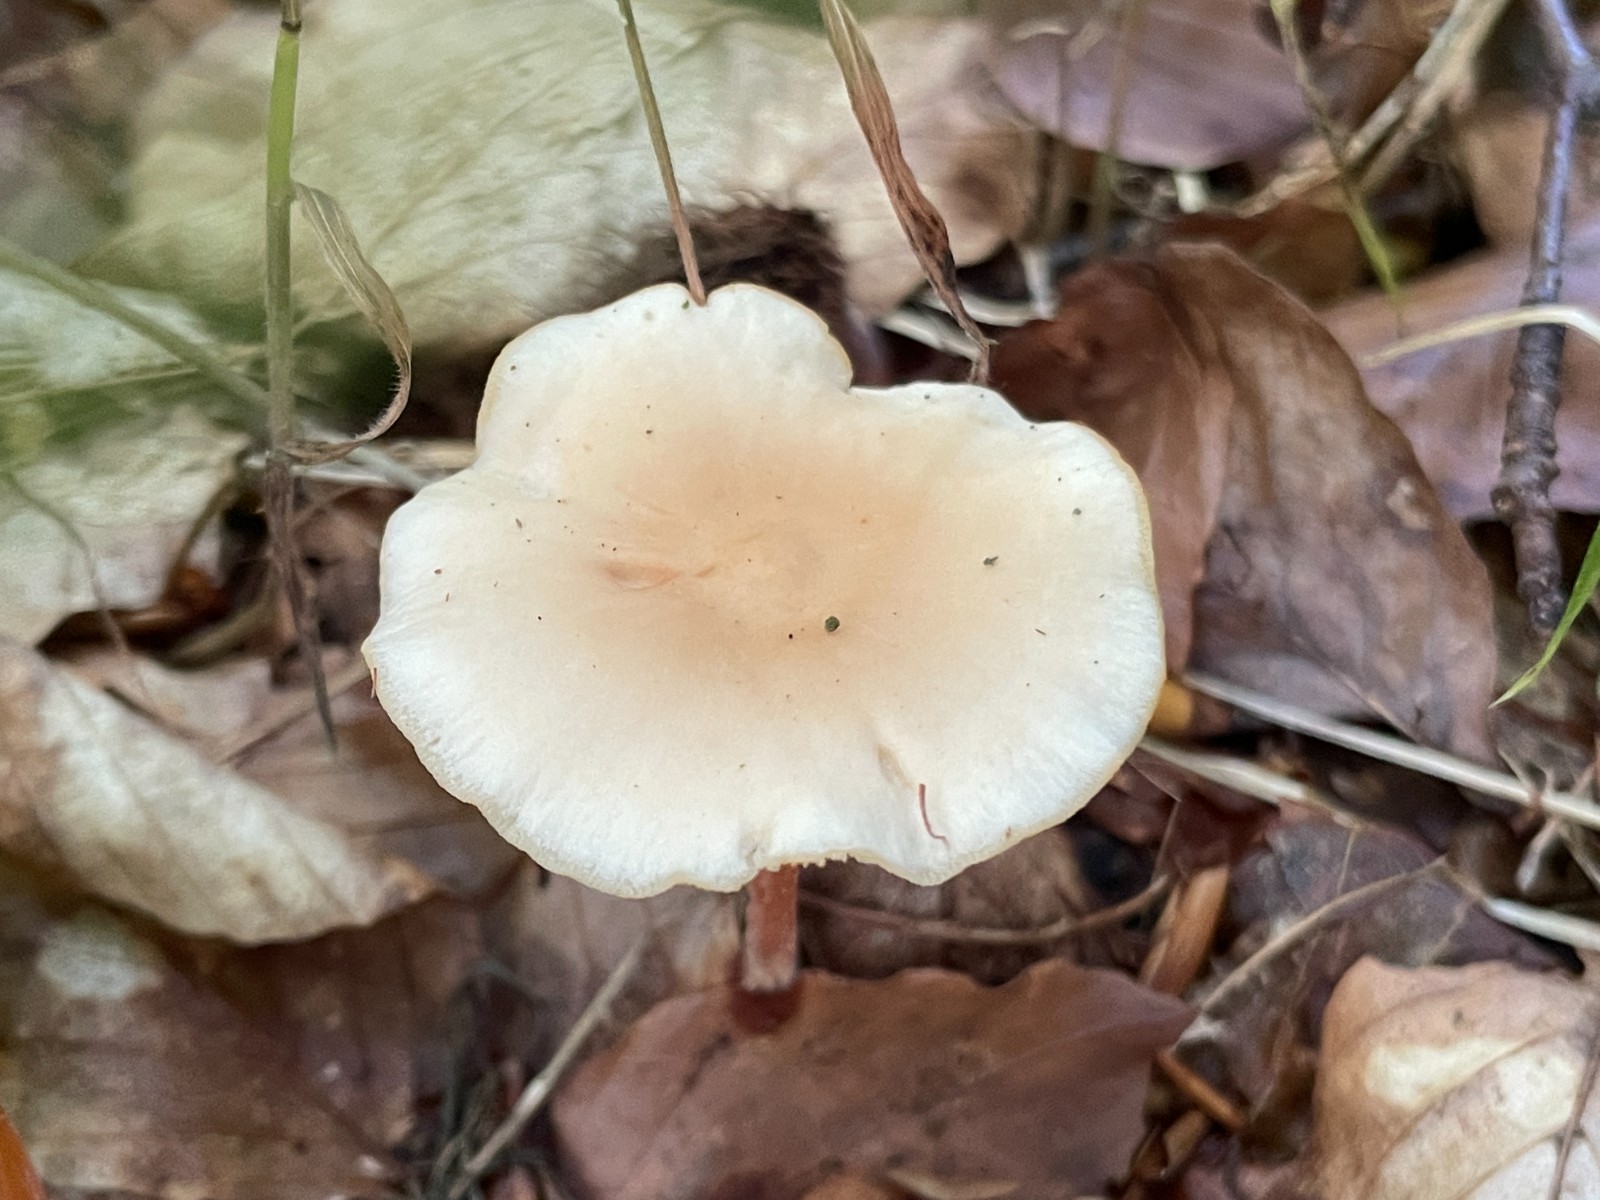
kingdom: Fungi
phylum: Basidiomycota
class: Agaricomycetes
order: Agaricales
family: Omphalotaceae
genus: Gymnopus
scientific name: Gymnopus dryophilus
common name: løv-fladhat
